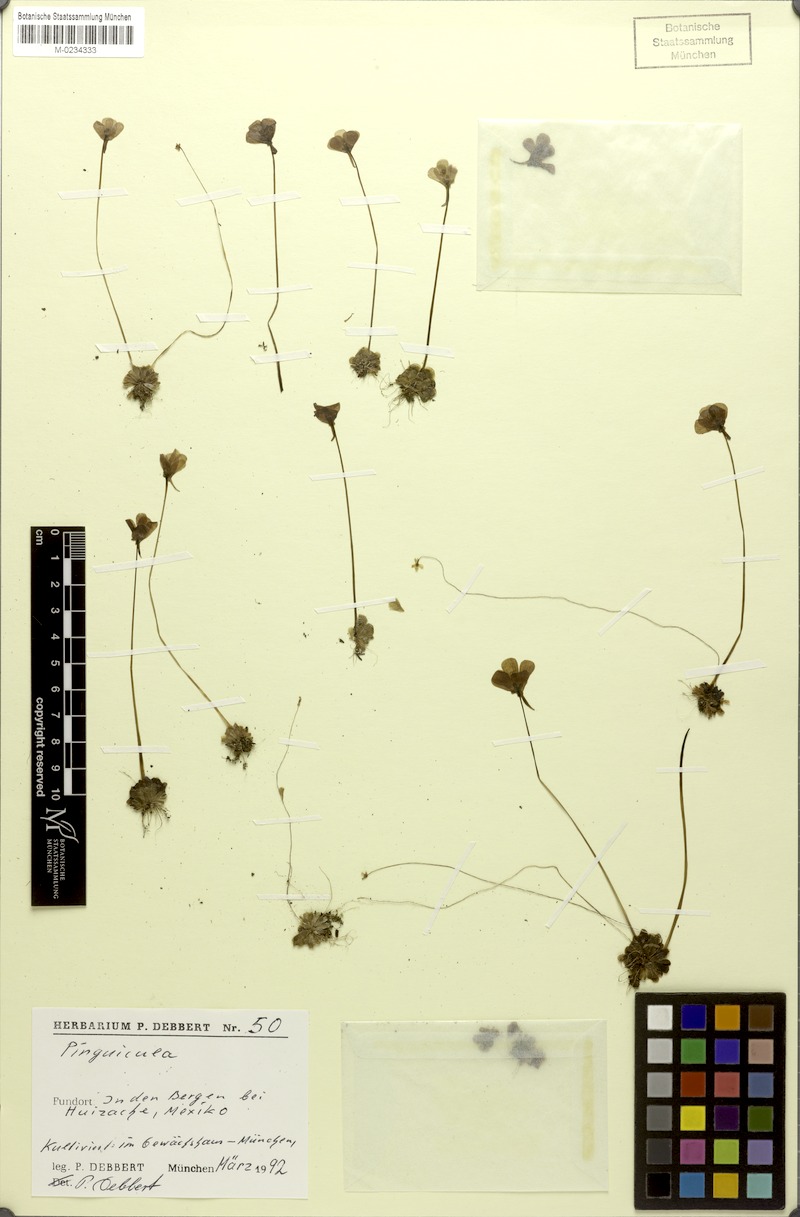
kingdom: Plantae
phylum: Tracheophyta
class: Magnoliopsida
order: Lamiales
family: Lentibulariaceae
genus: Pinguicula
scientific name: Pinguicula debbertiana
